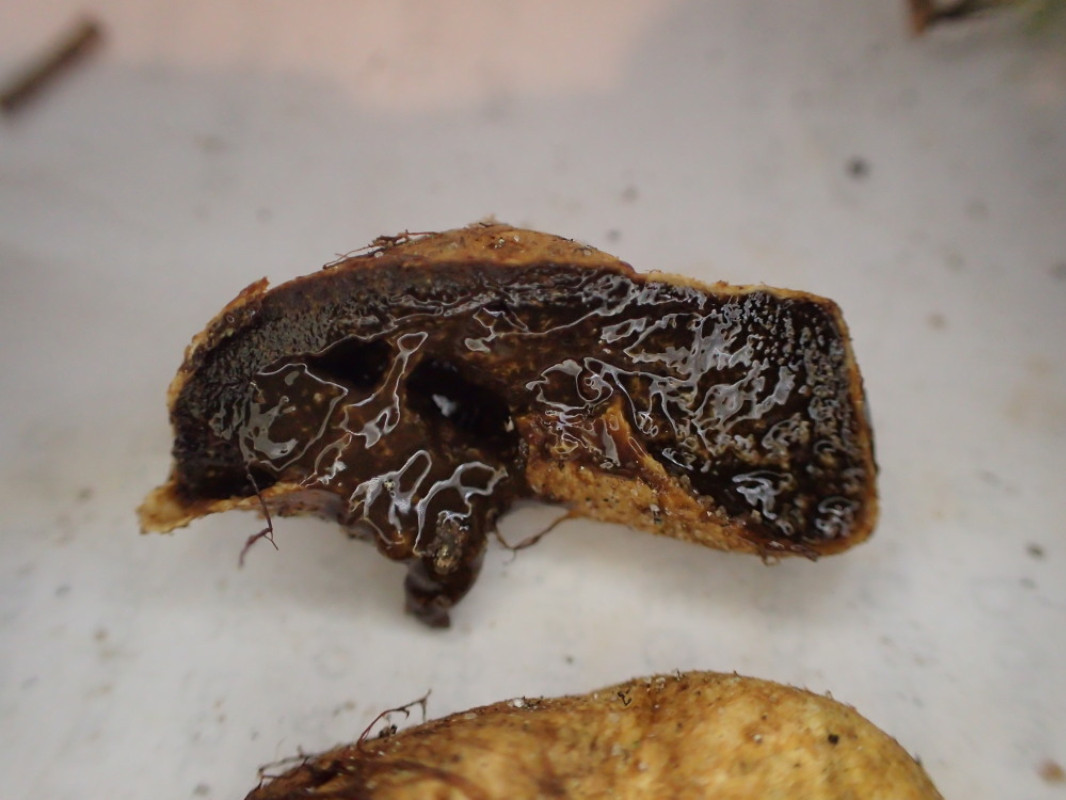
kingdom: Fungi
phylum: Basidiomycota
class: Agaricomycetes
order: Boletales
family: Rhizopogonaceae
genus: Rhizopogon
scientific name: Rhizopogon obtextus
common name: gul skægtrøffel
